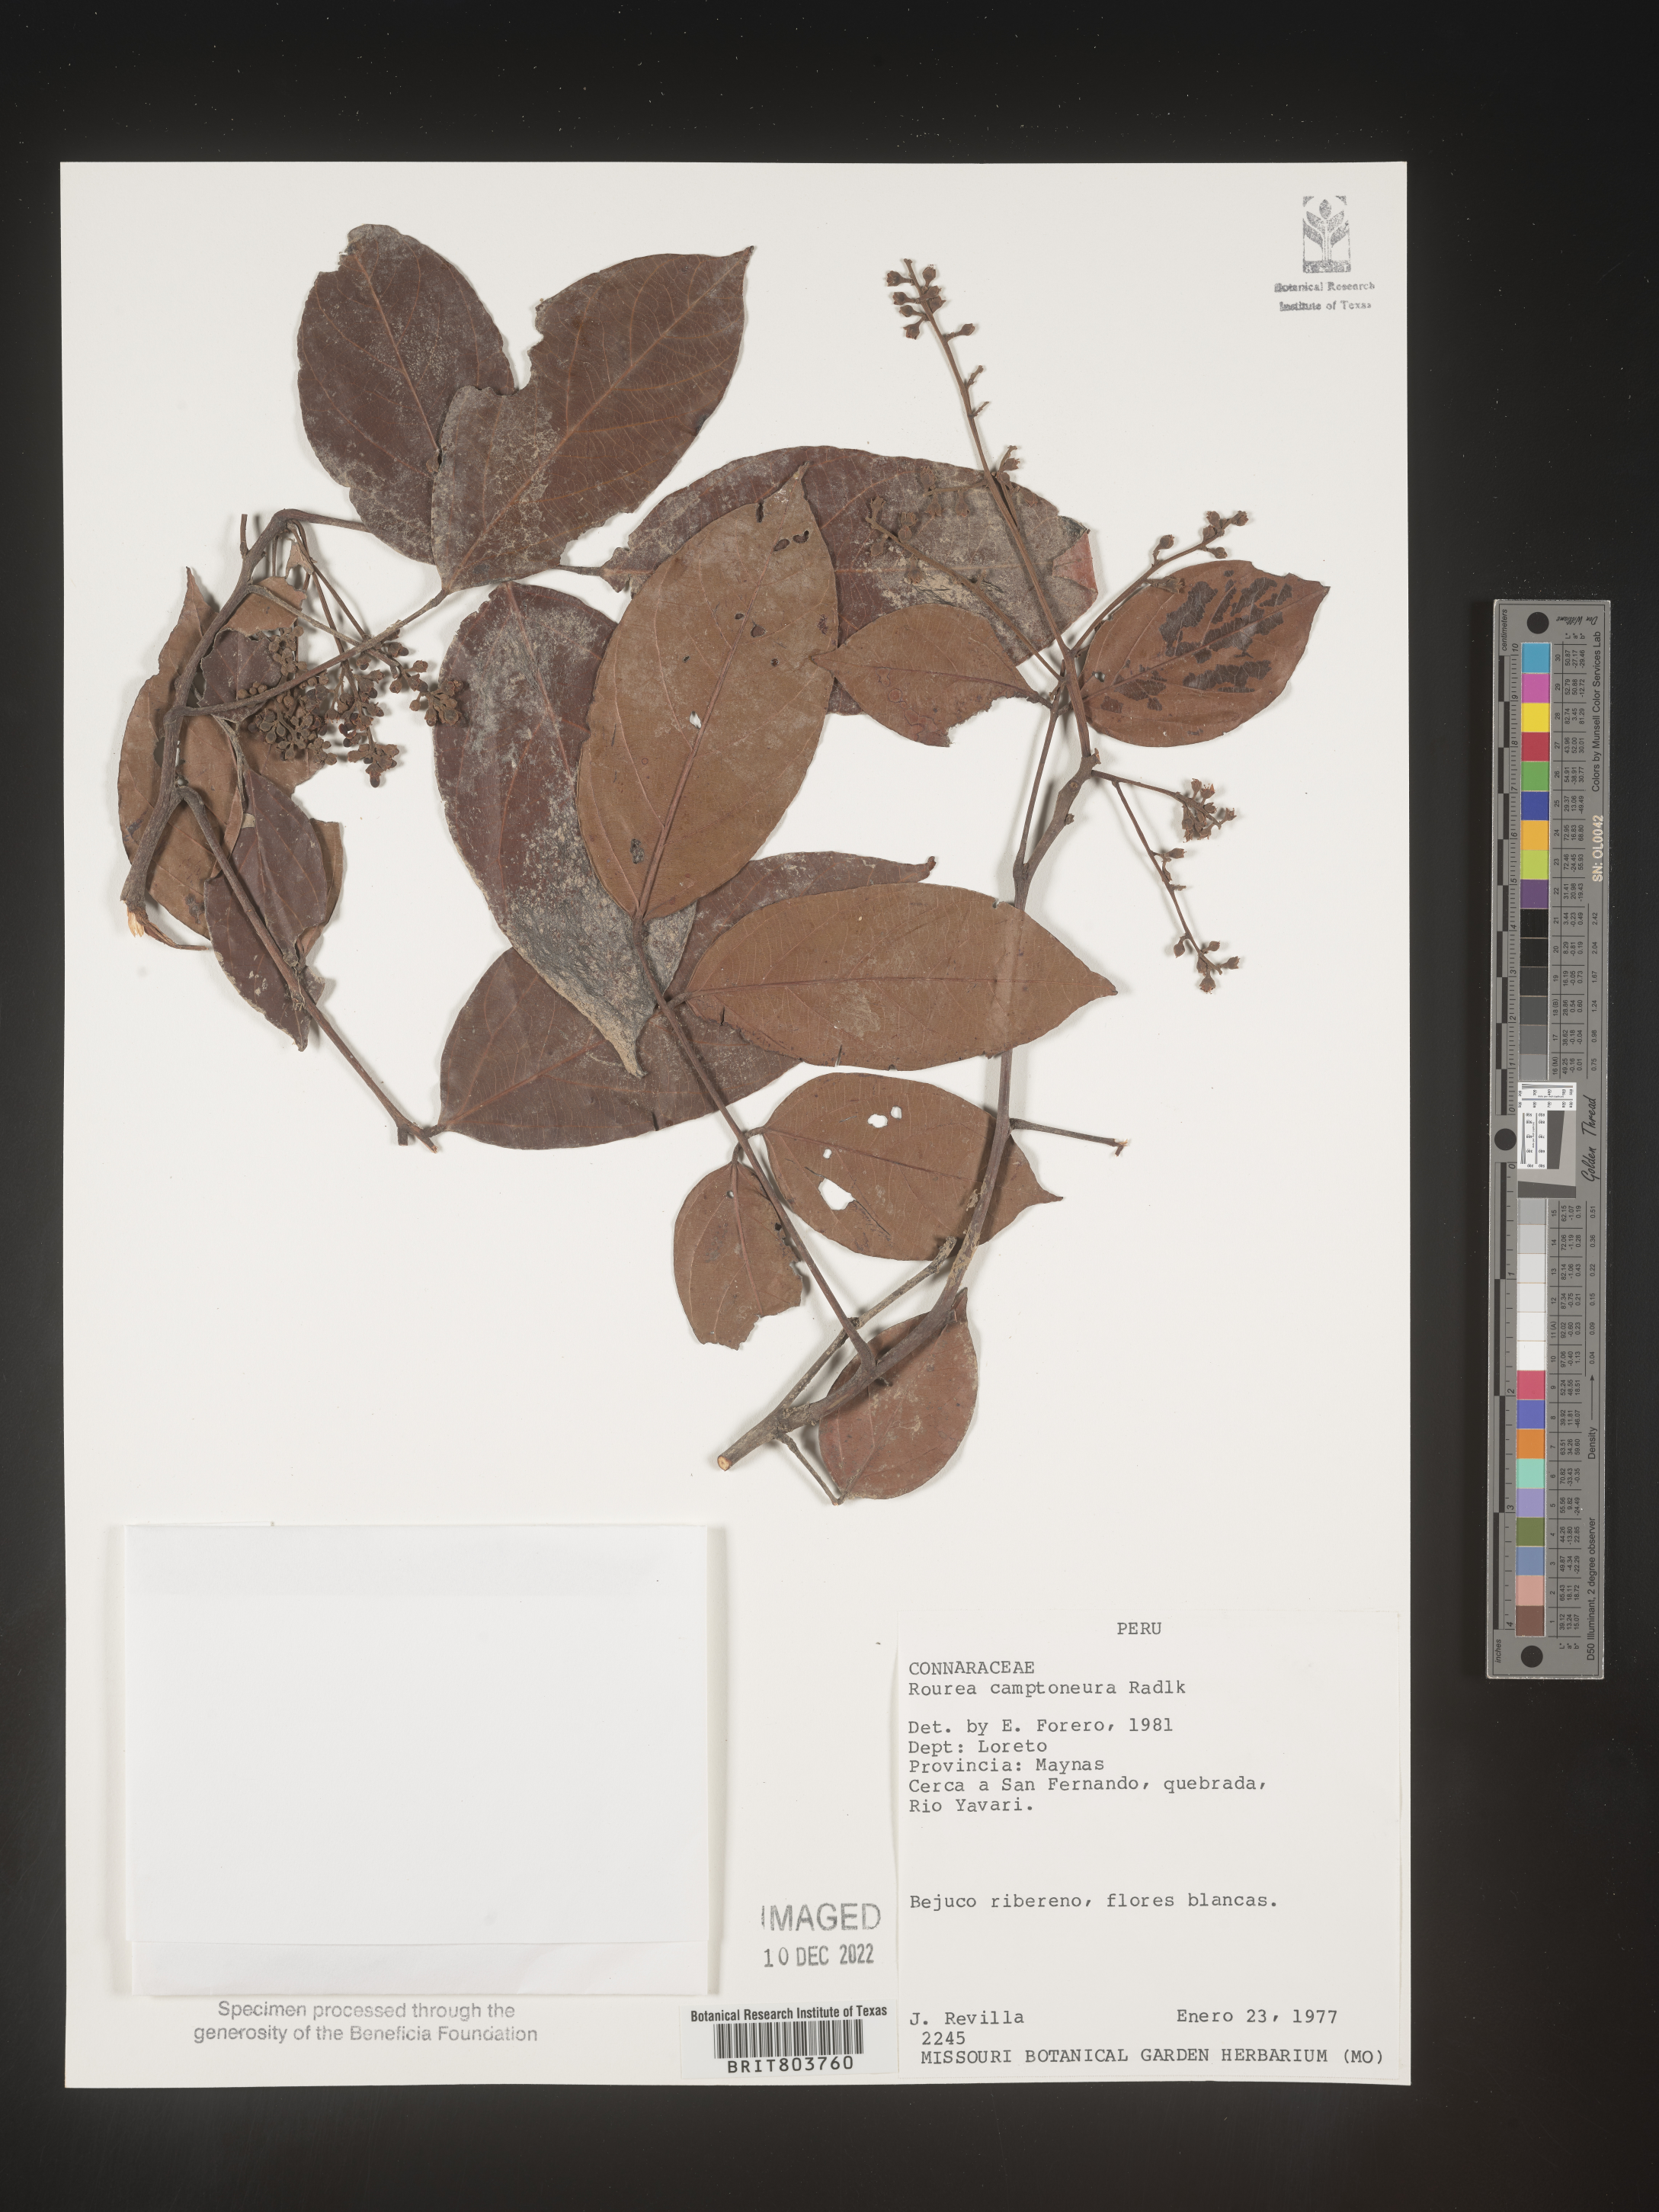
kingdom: Plantae
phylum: Tracheophyta
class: Magnoliopsida
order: Oxalidales
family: Connaraceae
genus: Rourea
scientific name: Rourea
